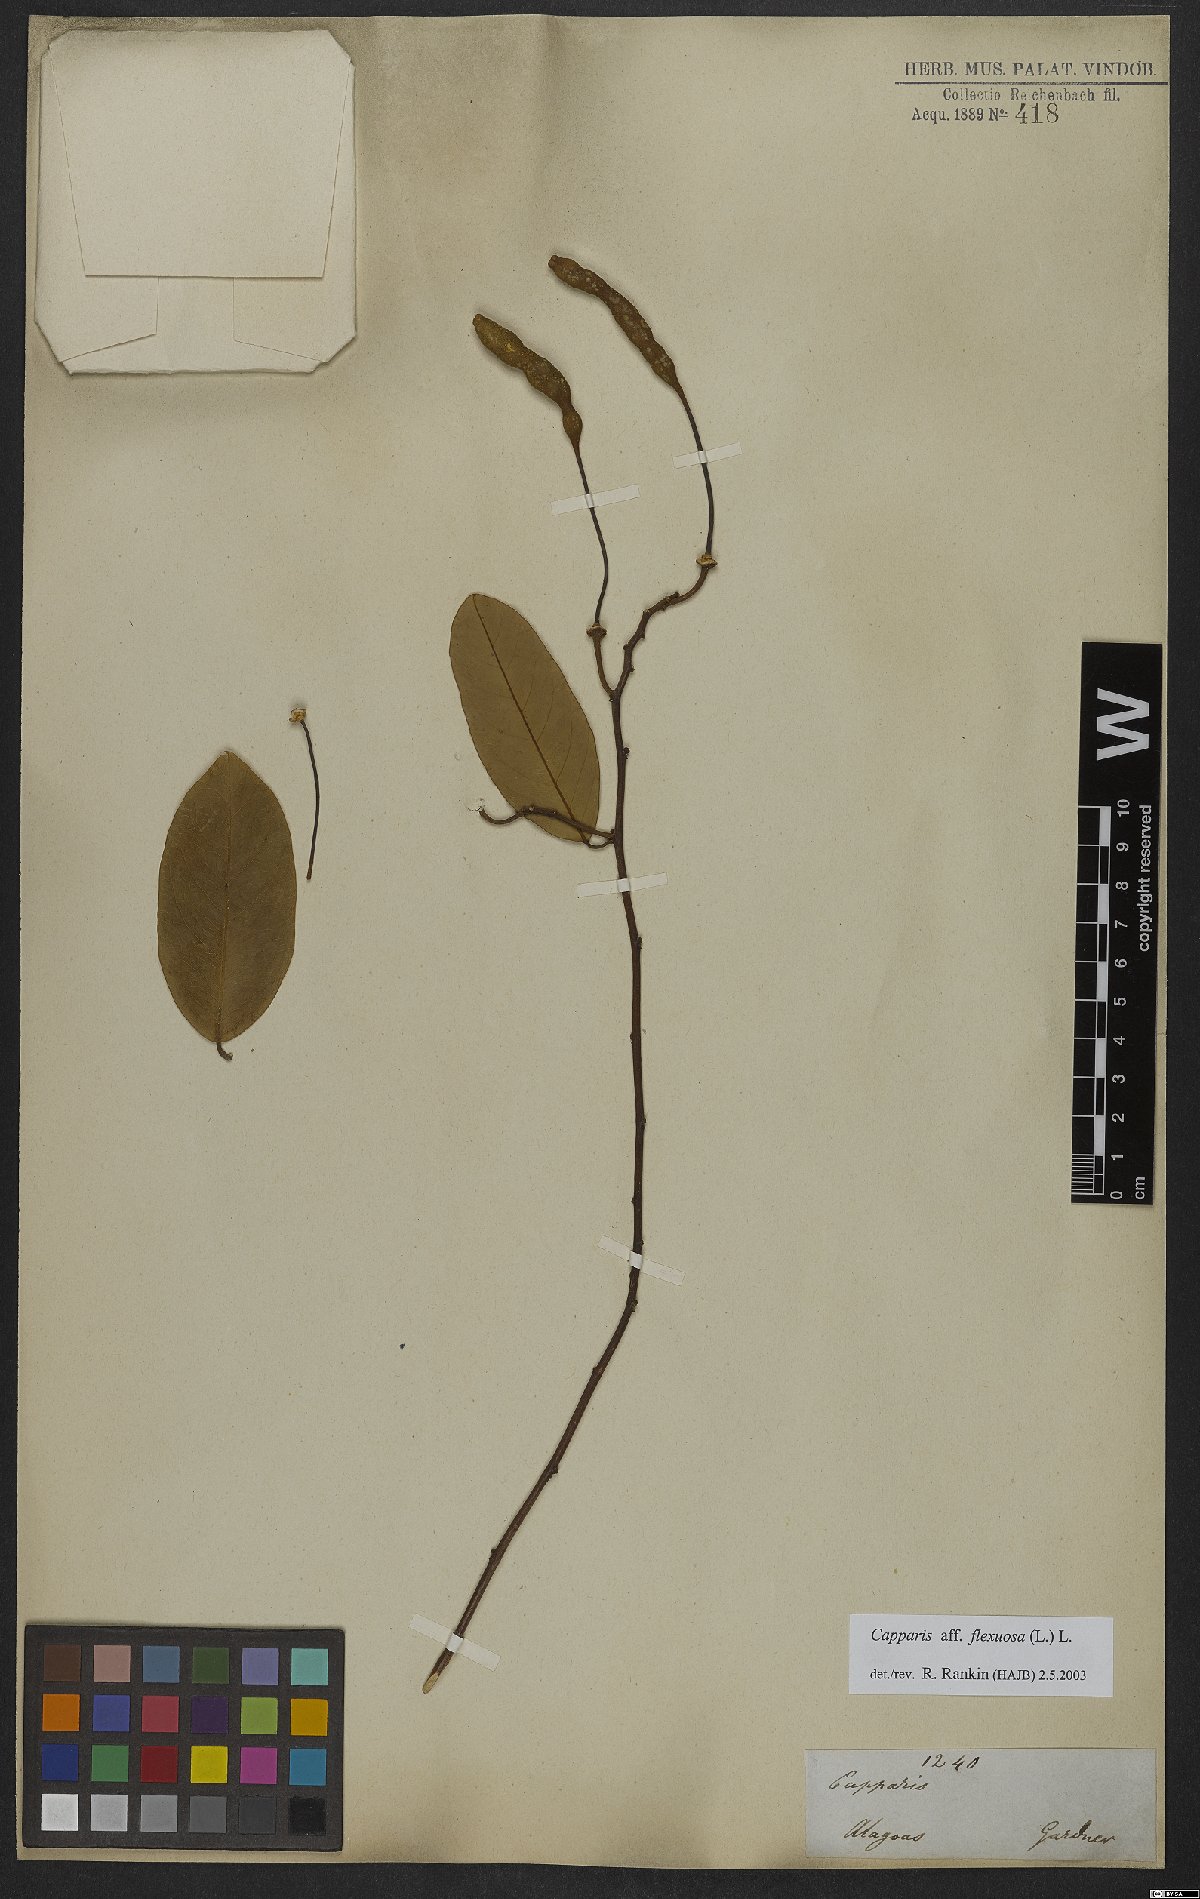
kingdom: Plantae
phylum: Tracheophyta
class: Magnoliopsida
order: Brassicales
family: Capparaceae
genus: Cynophalla
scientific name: Cynophalla flexuosa
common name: Capertree
